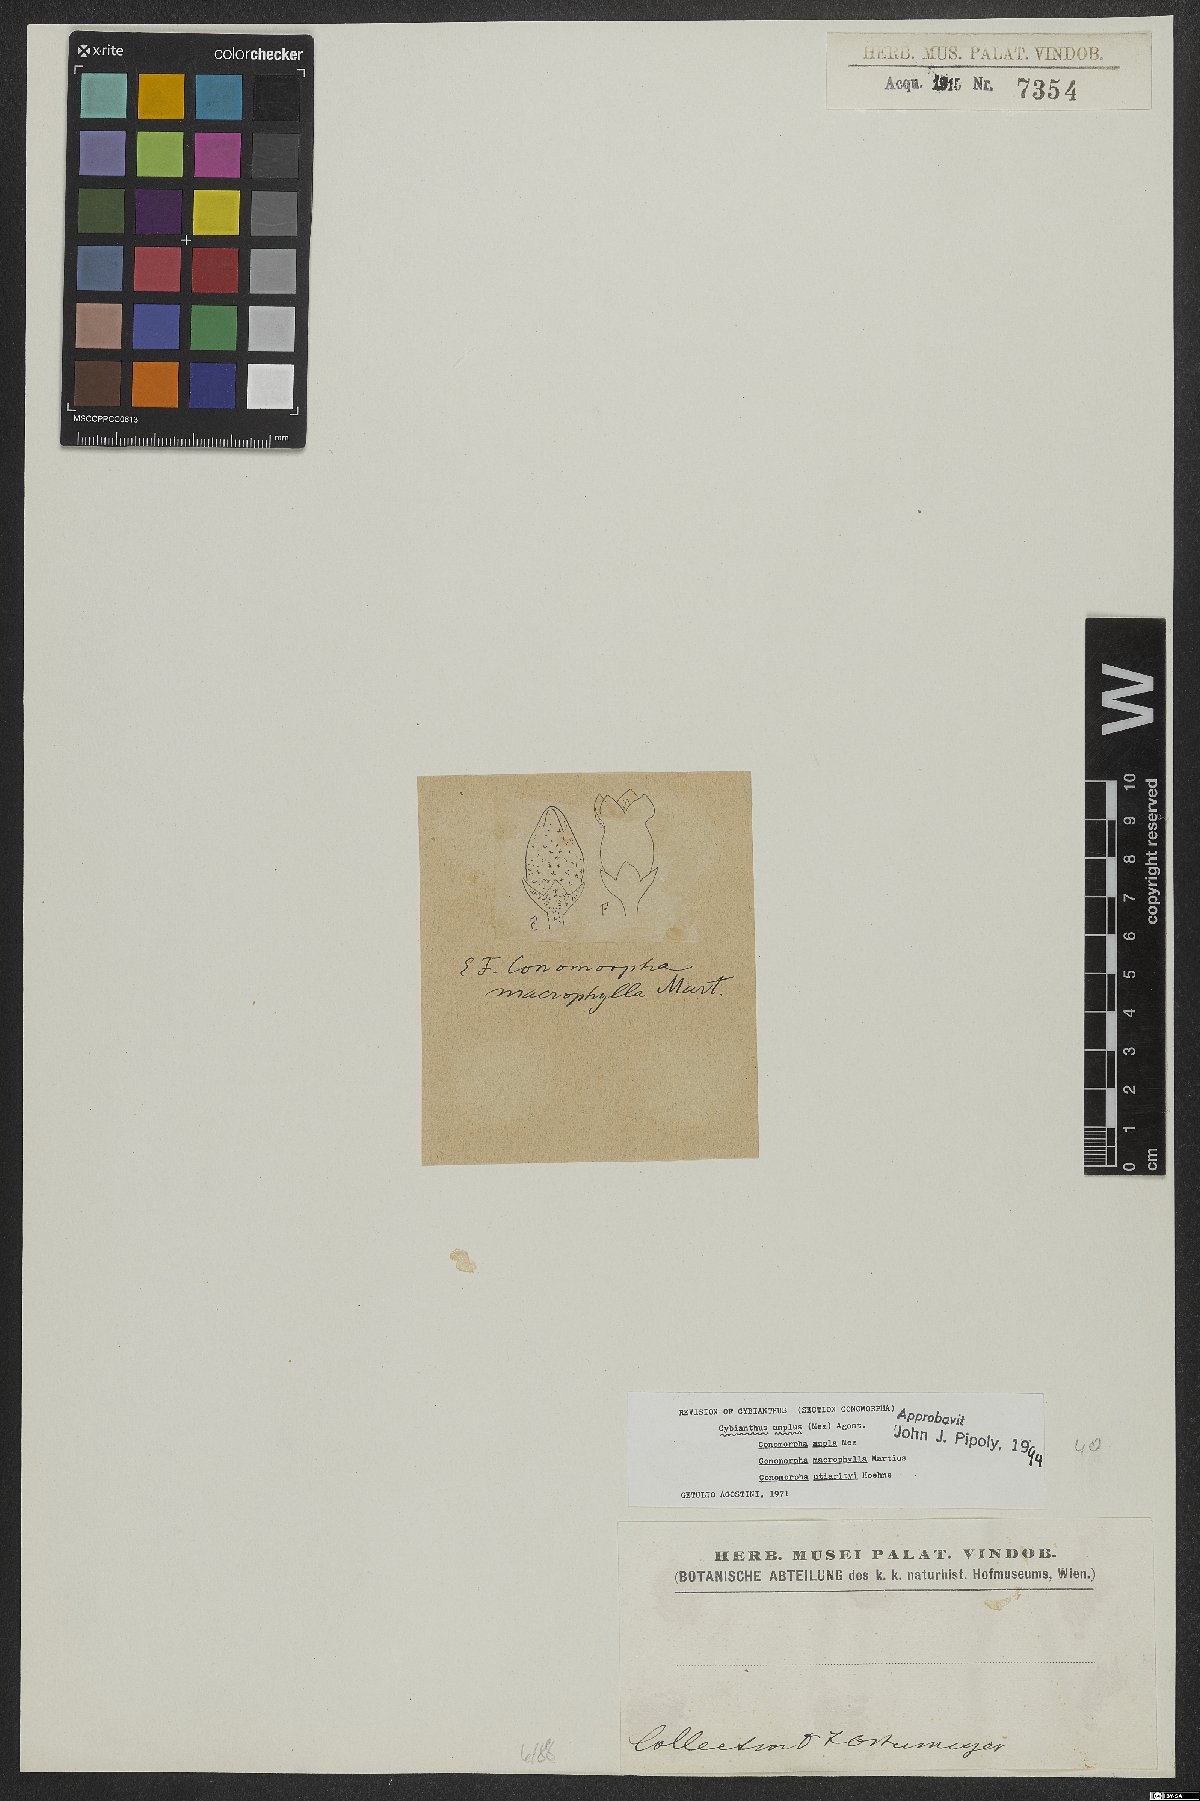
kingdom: Plantae
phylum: Tracheophyta
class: Magnoliopsida
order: Ericales
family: Primulaceae
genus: Cybianthus
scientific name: Cybianthus amplus
